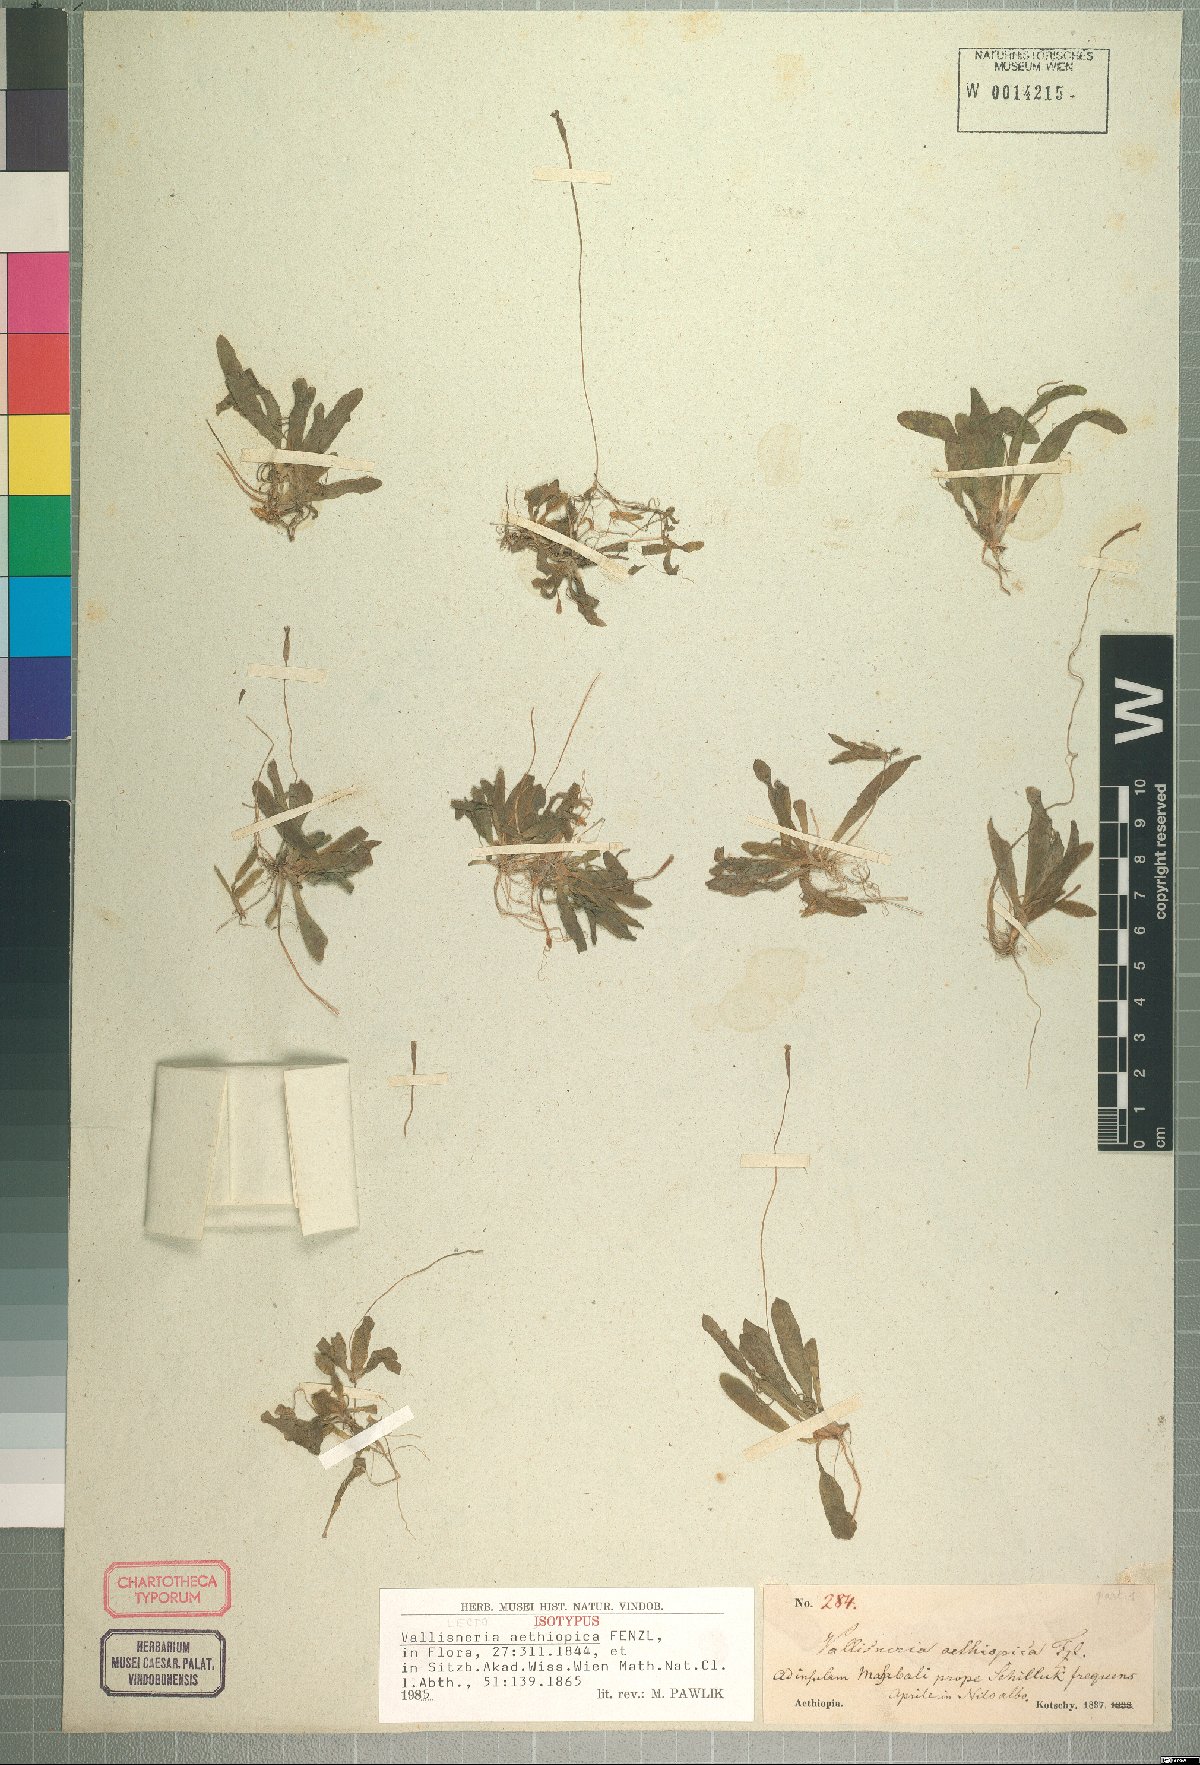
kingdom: Plantae
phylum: Tracheophyta
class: Liliopsida
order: Alismatales
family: Hydrocharitaceae
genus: Vallisneria
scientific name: Vallisneria spiralis
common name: Tapegrass
